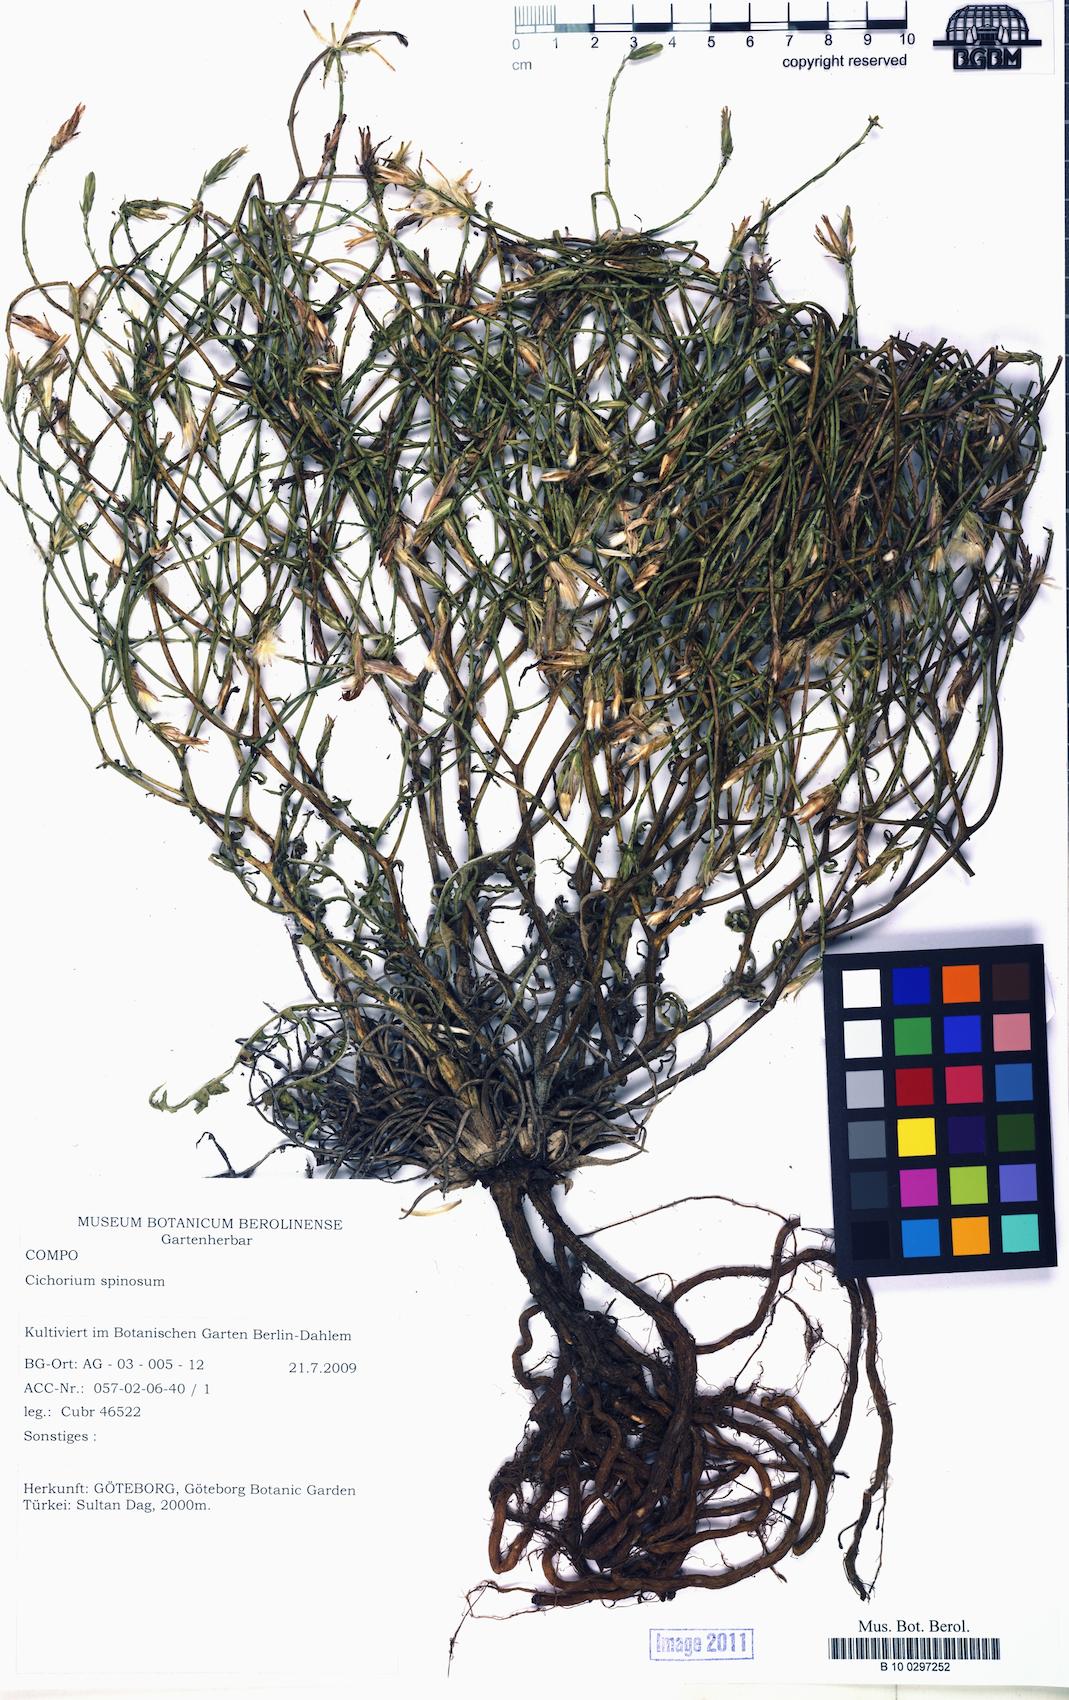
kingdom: Plantae
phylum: Tracheophyta
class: Magnoliopsida
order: Asterales
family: Asteraceae
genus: Cichorium
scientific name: Cichorium spinosum
